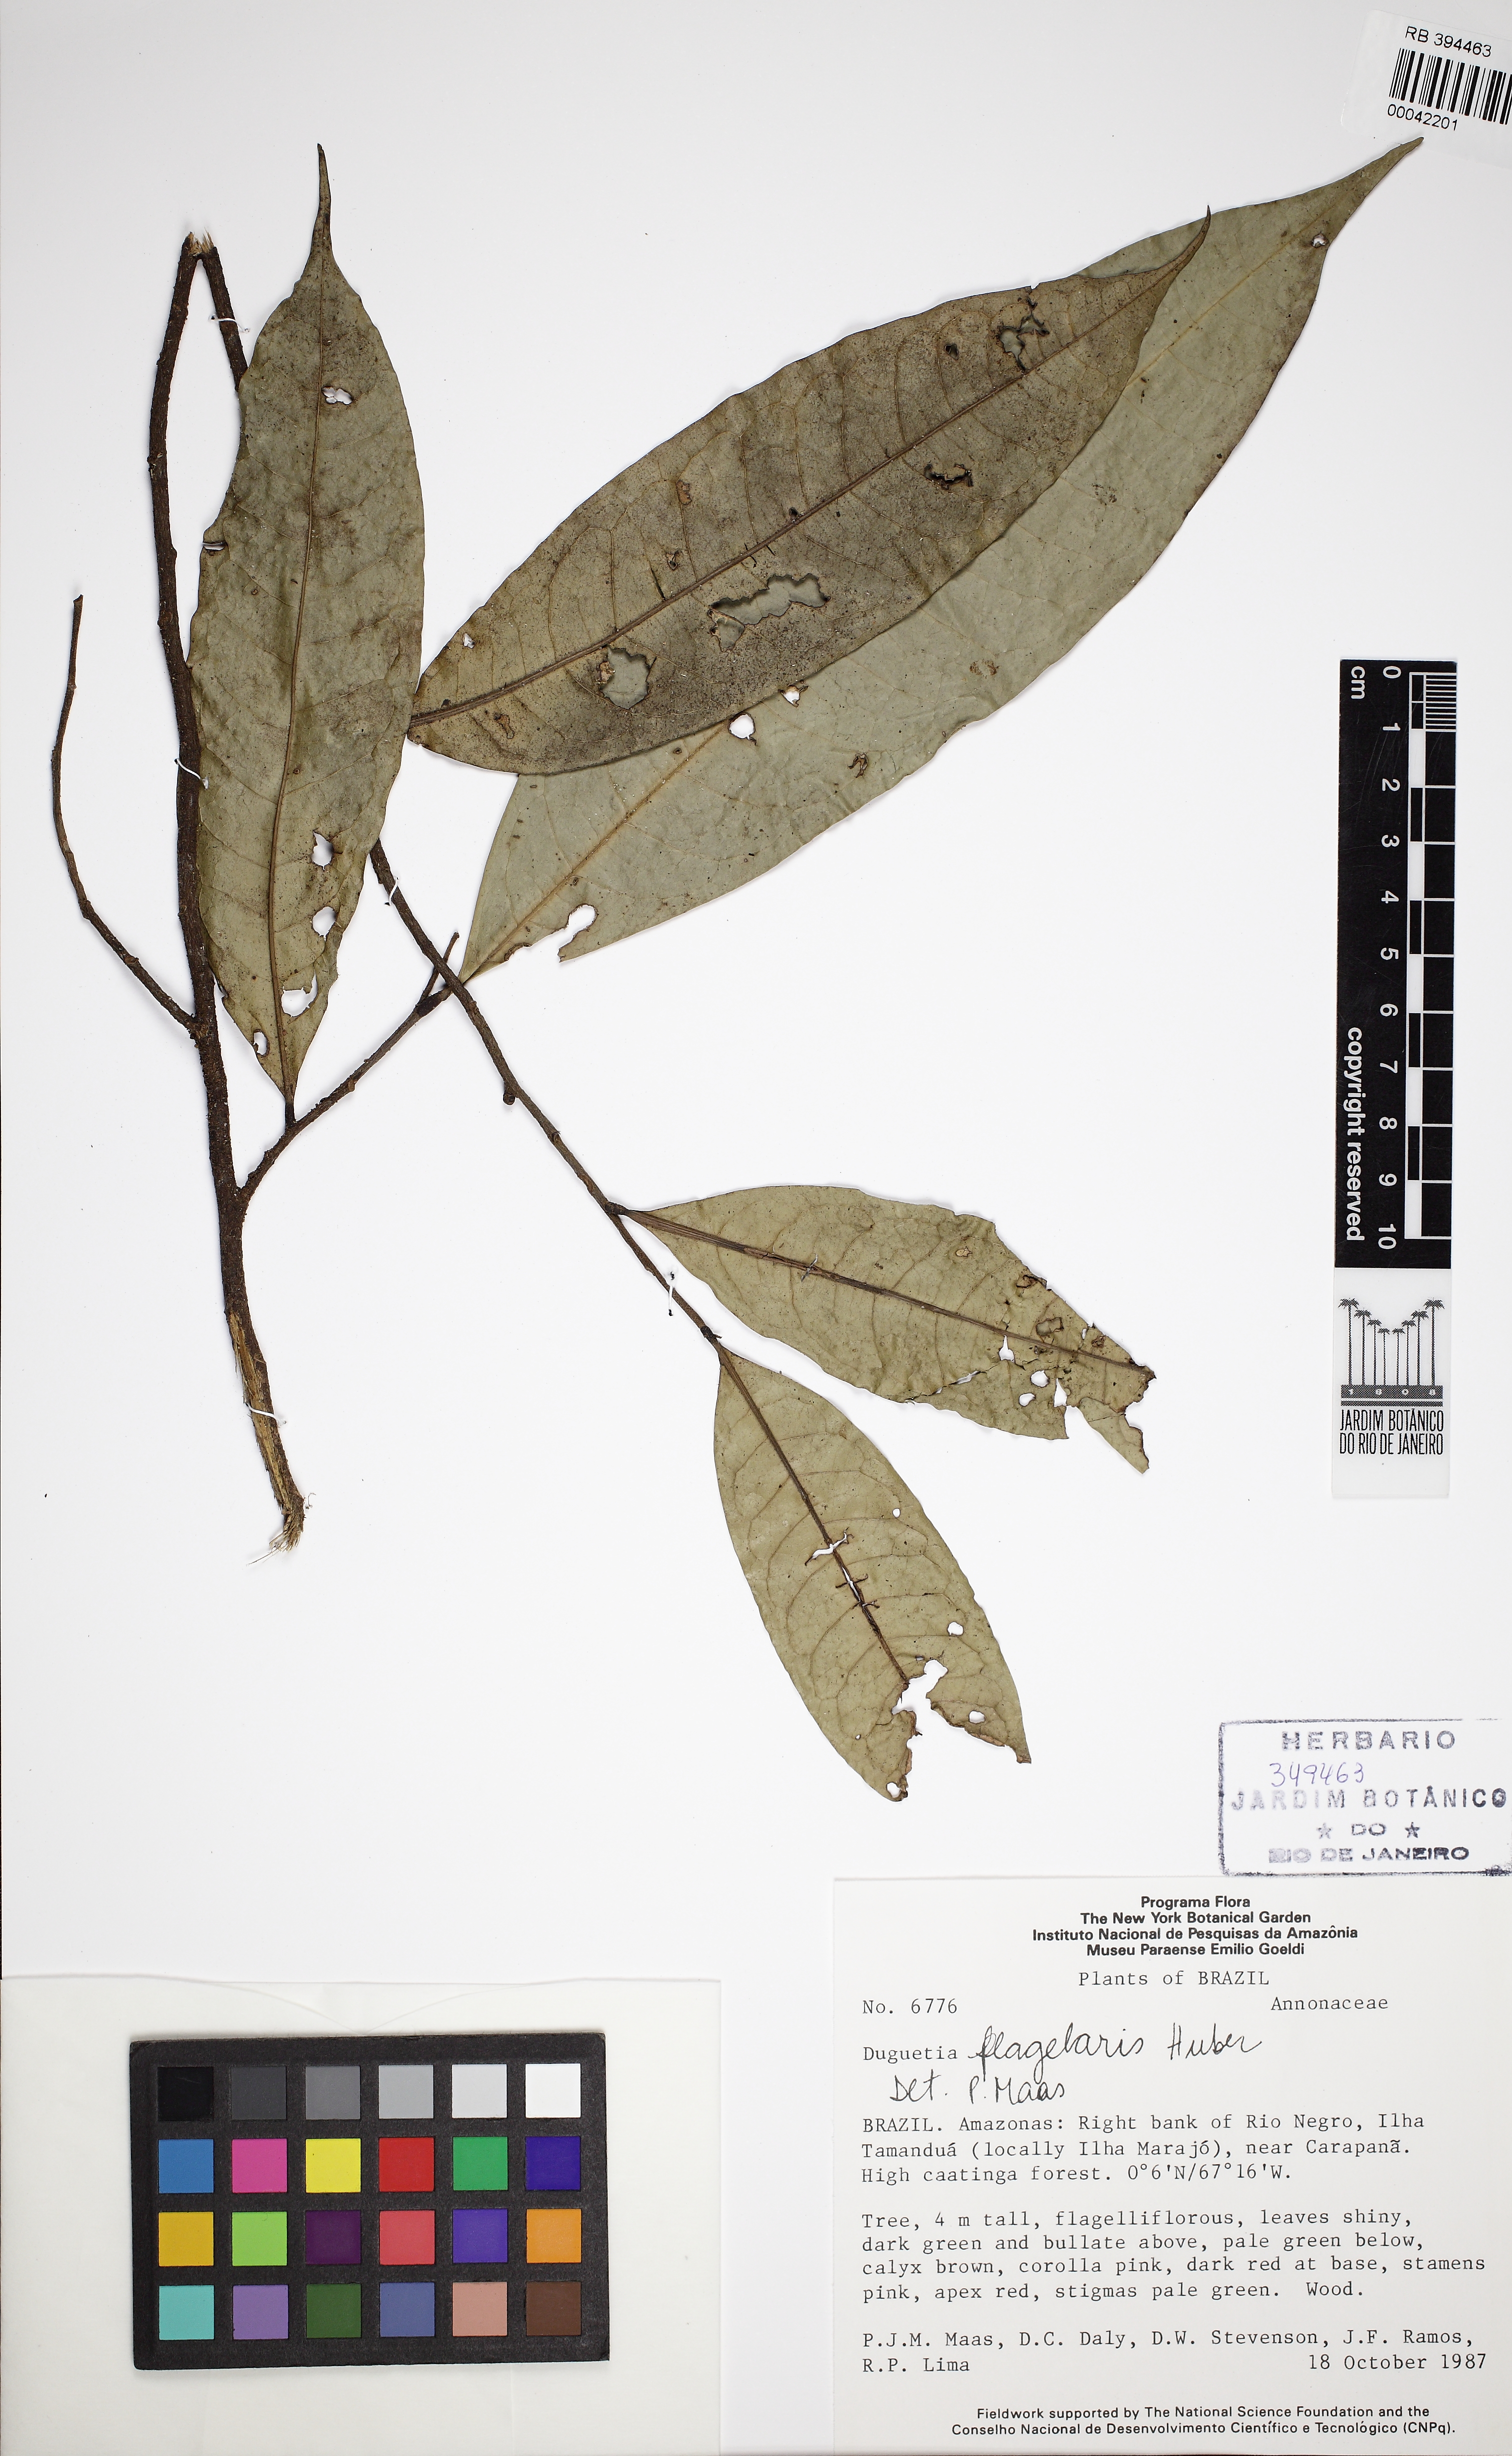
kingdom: Plantae
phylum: Tracheophyta
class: Magnoliopsida
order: Magnoliales
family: Annonaceae
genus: Duguetia
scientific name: Duguetia flagellaris
